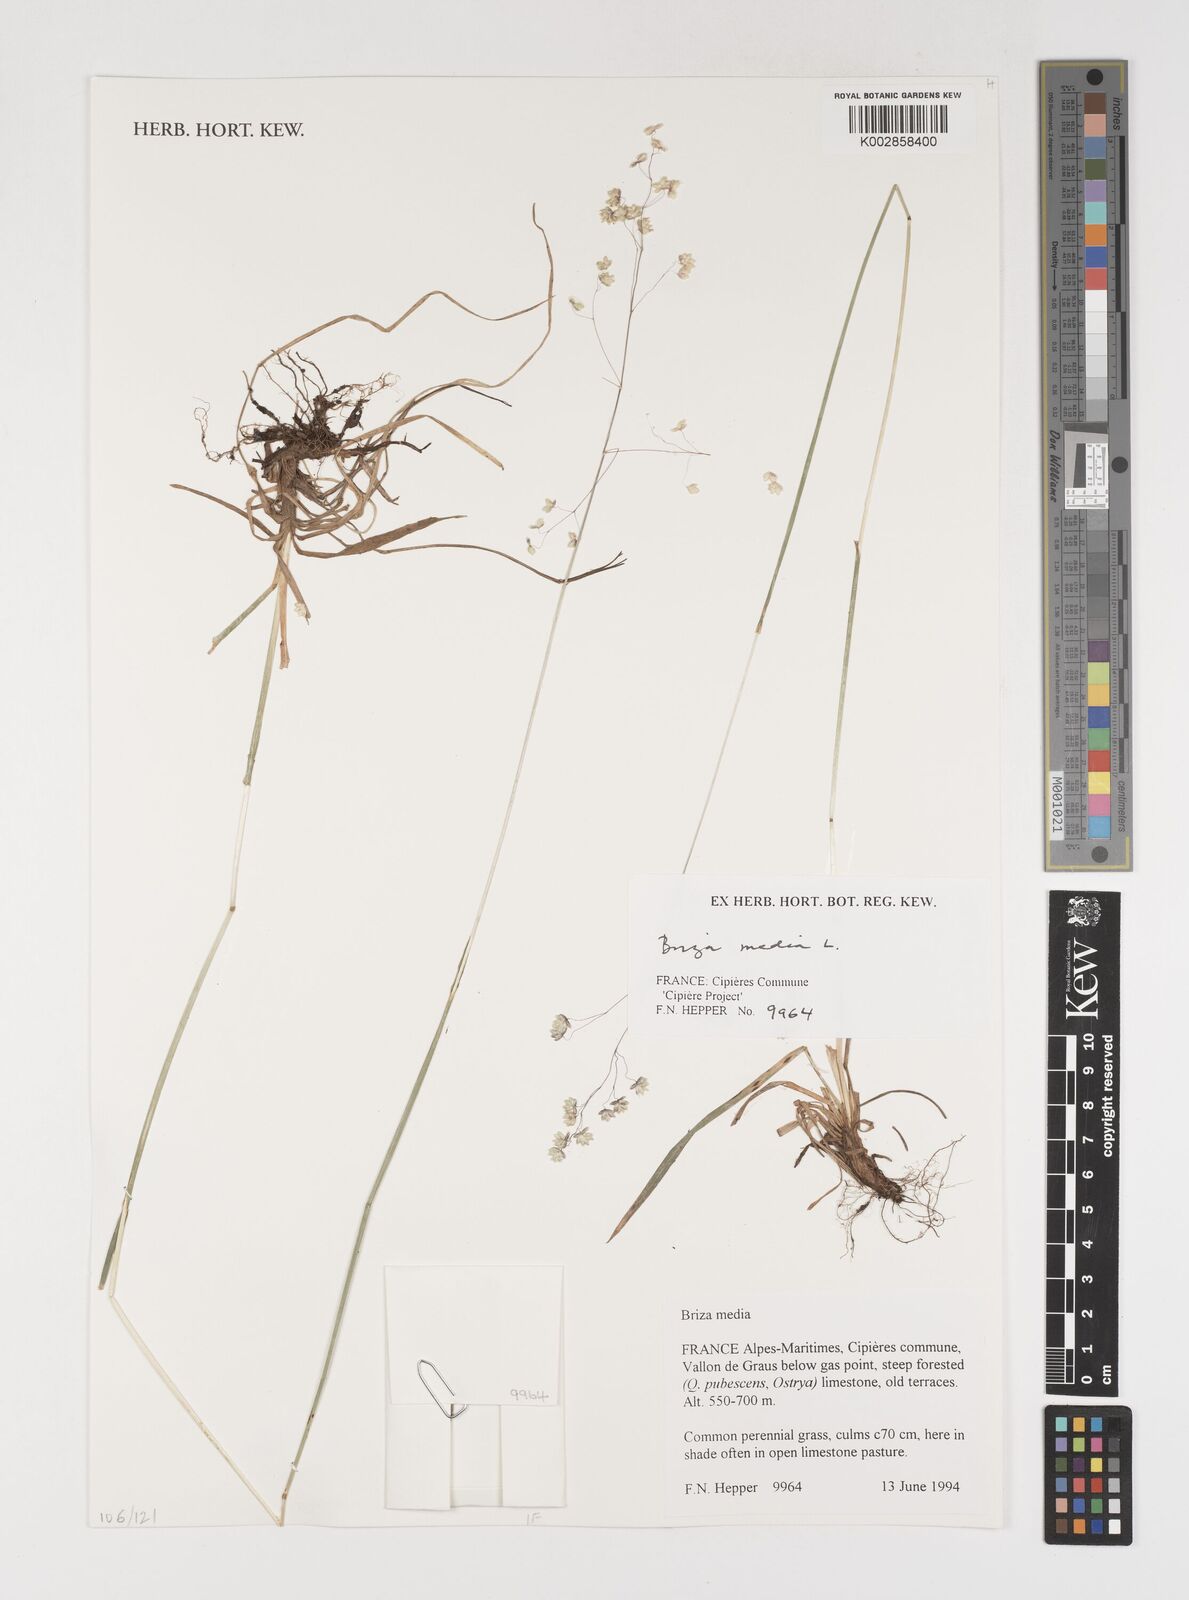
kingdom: Plantae
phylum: Tracheophyta
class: Liliopsida
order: Poales
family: Poaceae
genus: Briza
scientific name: Briza media
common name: Quaking grass
